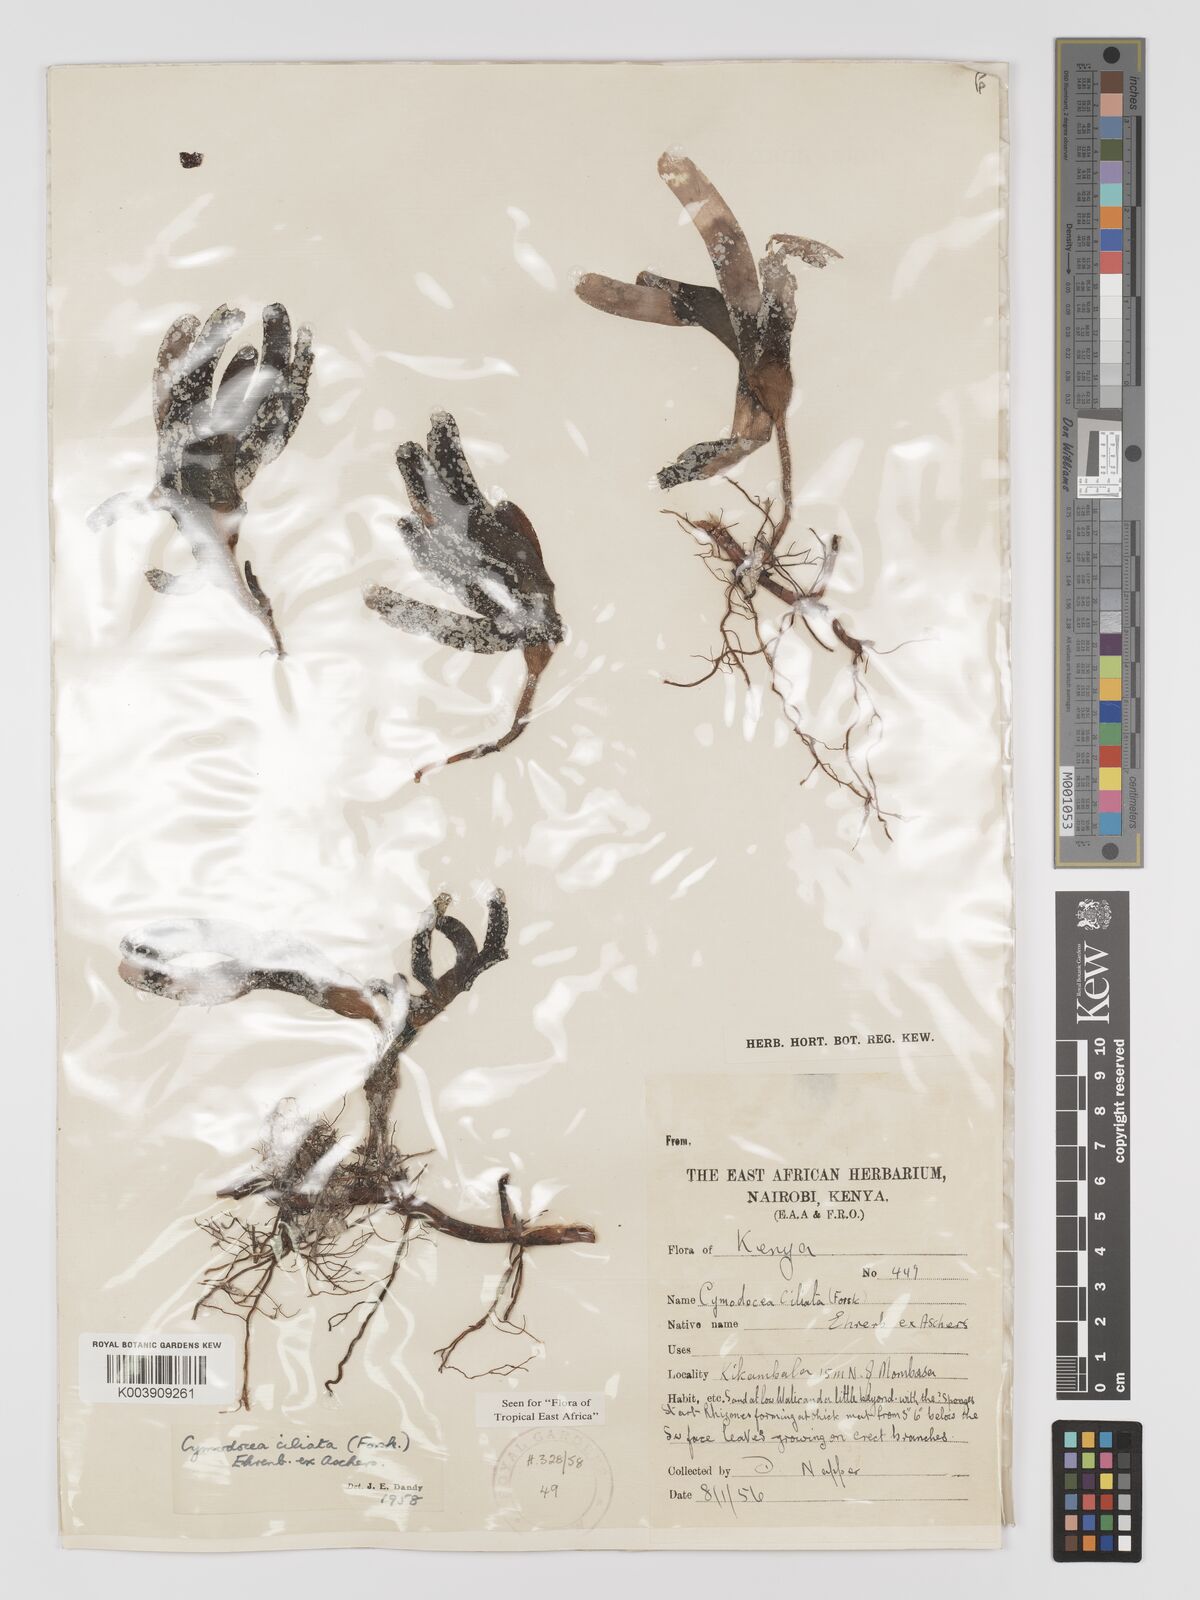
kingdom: Plantae
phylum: Tracheophyta
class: Liliopsida
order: Alismatales
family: Cymodoceaceae
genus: Thalassodendron
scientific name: Thalassodendron ciliatum
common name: Species code: tc
